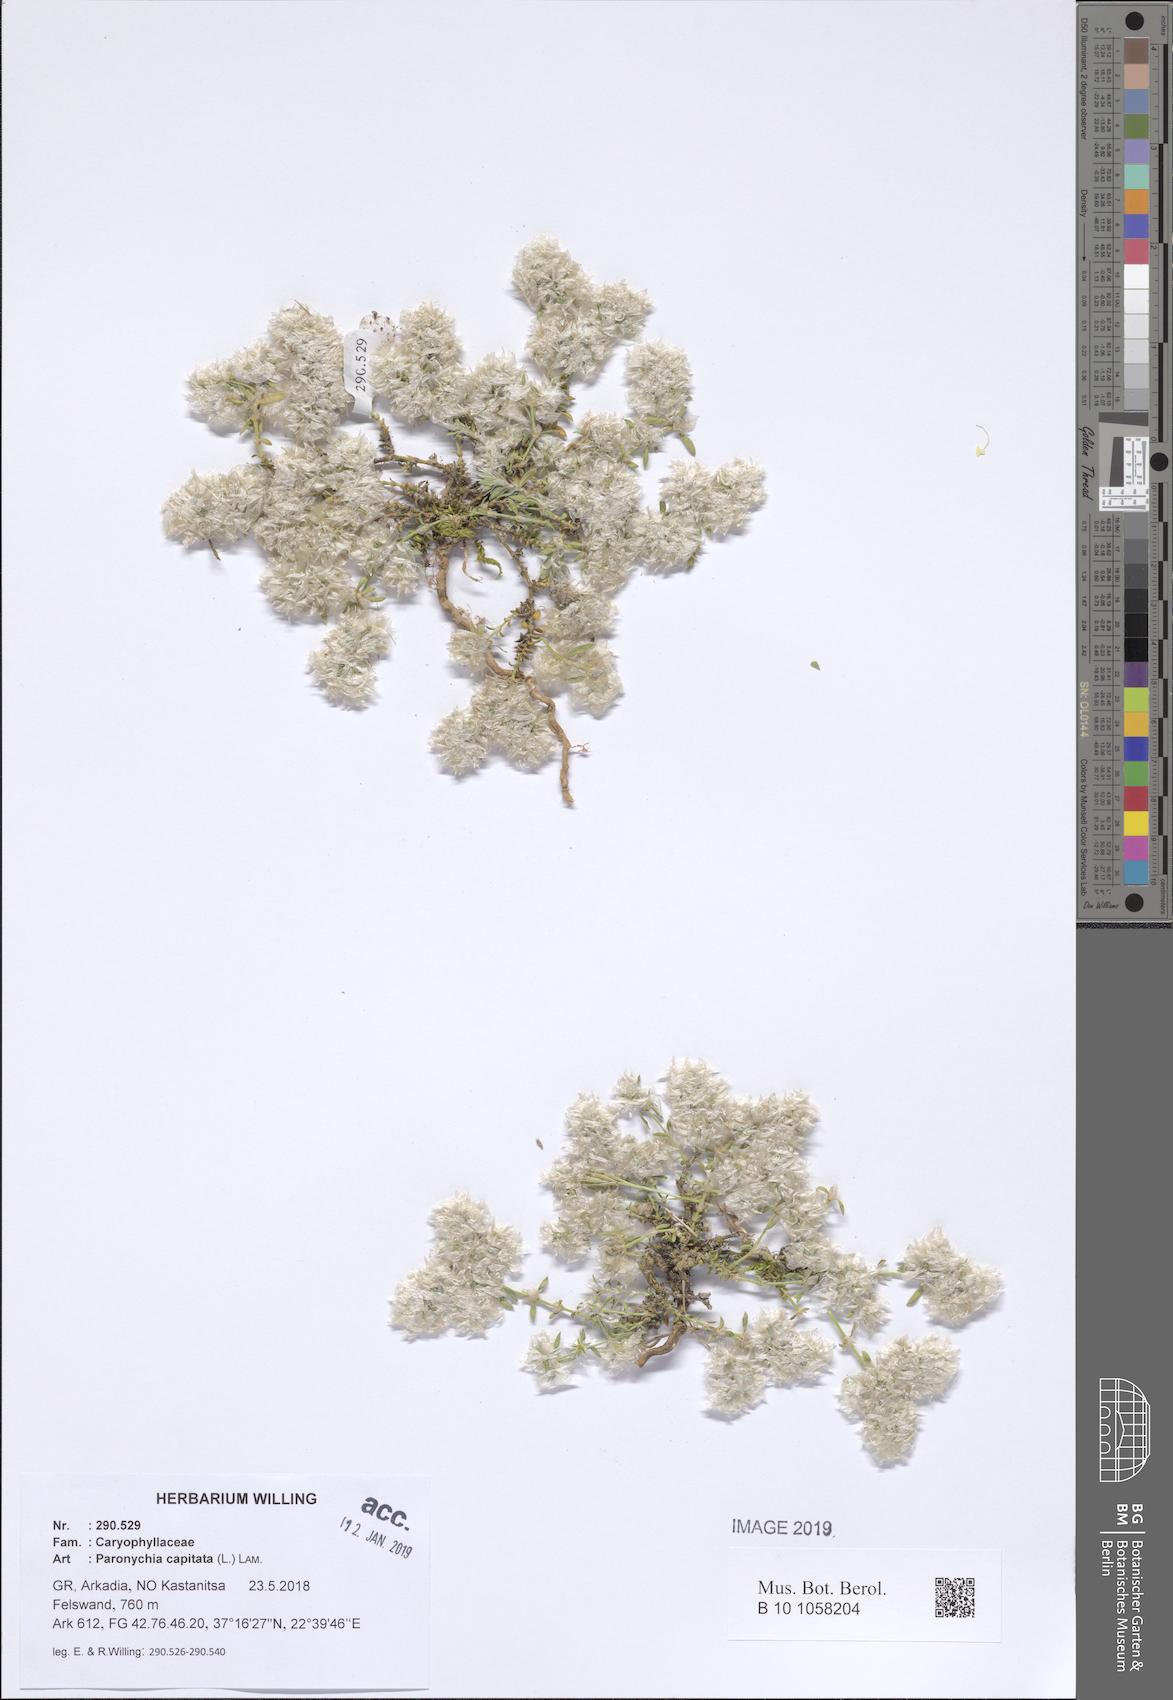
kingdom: Plantae
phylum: Tracheophyta
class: Magnoliopsida
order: Caryophyllales
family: Caryophyllaceae
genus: Paronychia
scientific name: Paronychia capitata
